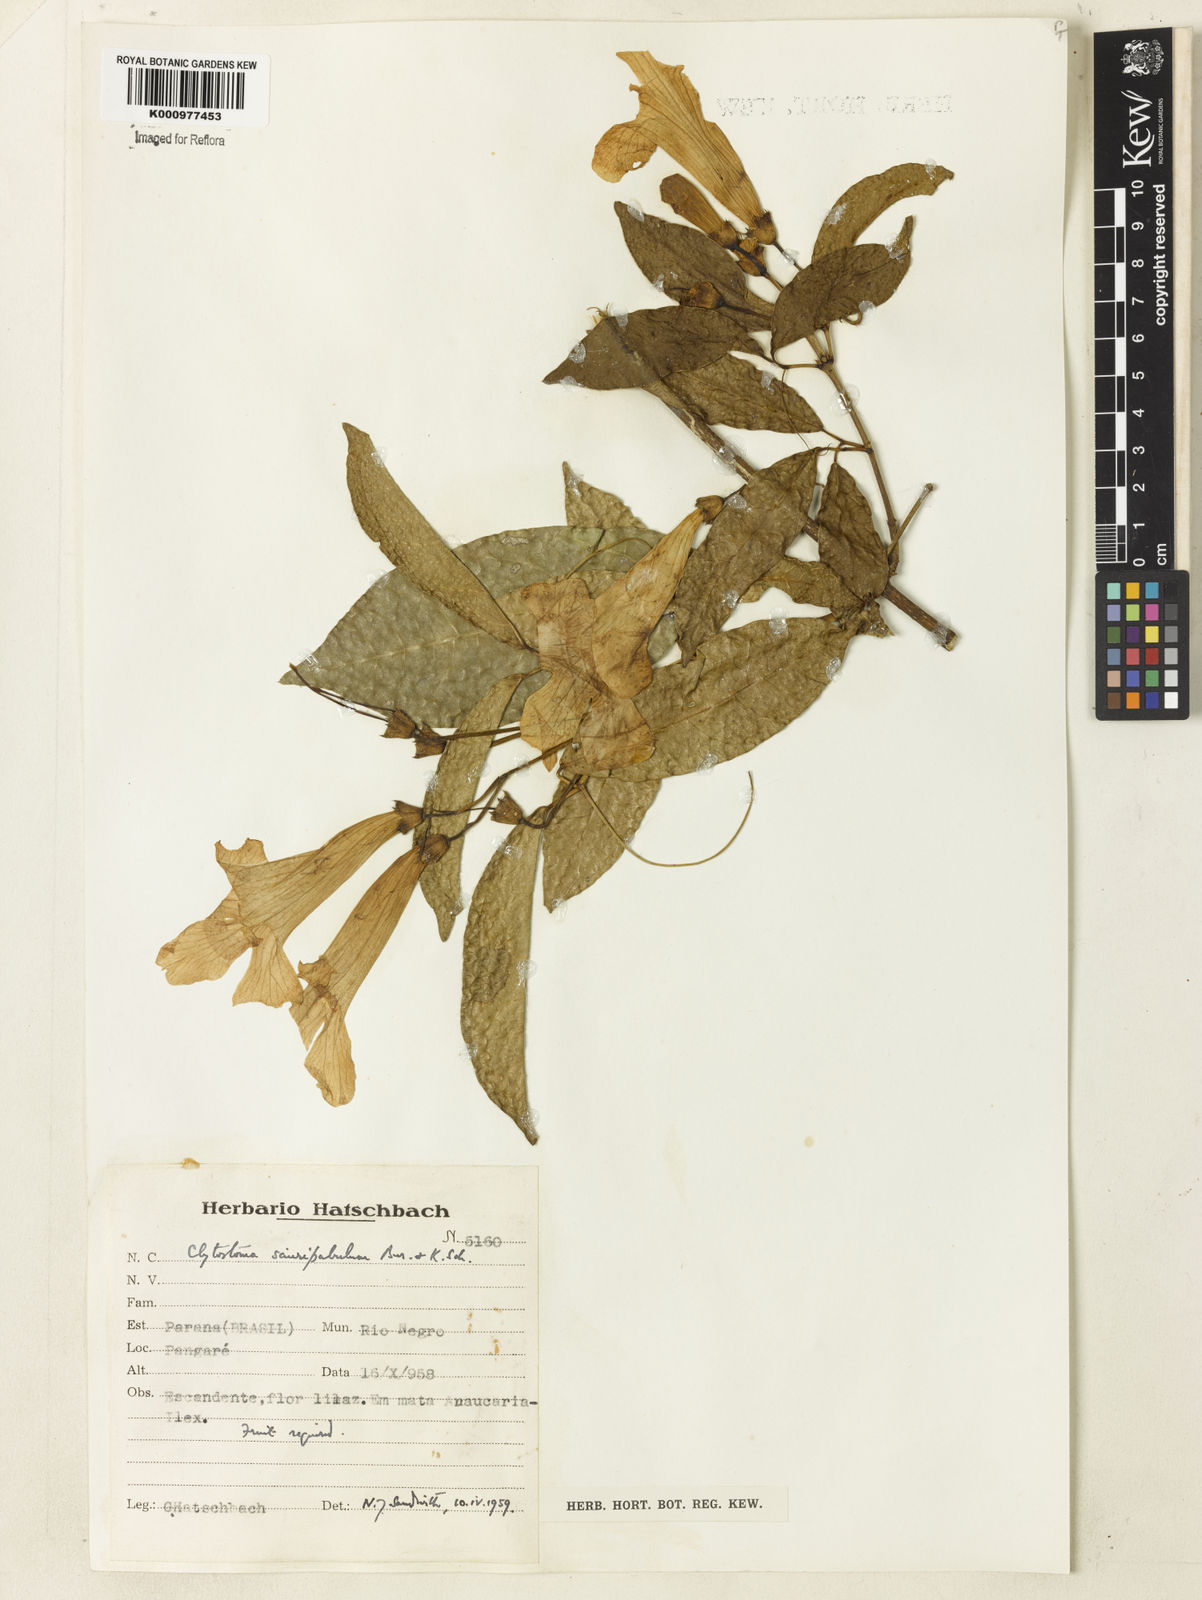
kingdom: Plantae
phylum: Tracheophyta
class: Magnoliopsida
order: Lamiales
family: Bignoniaceae
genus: Bignonia
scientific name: Bignonia
